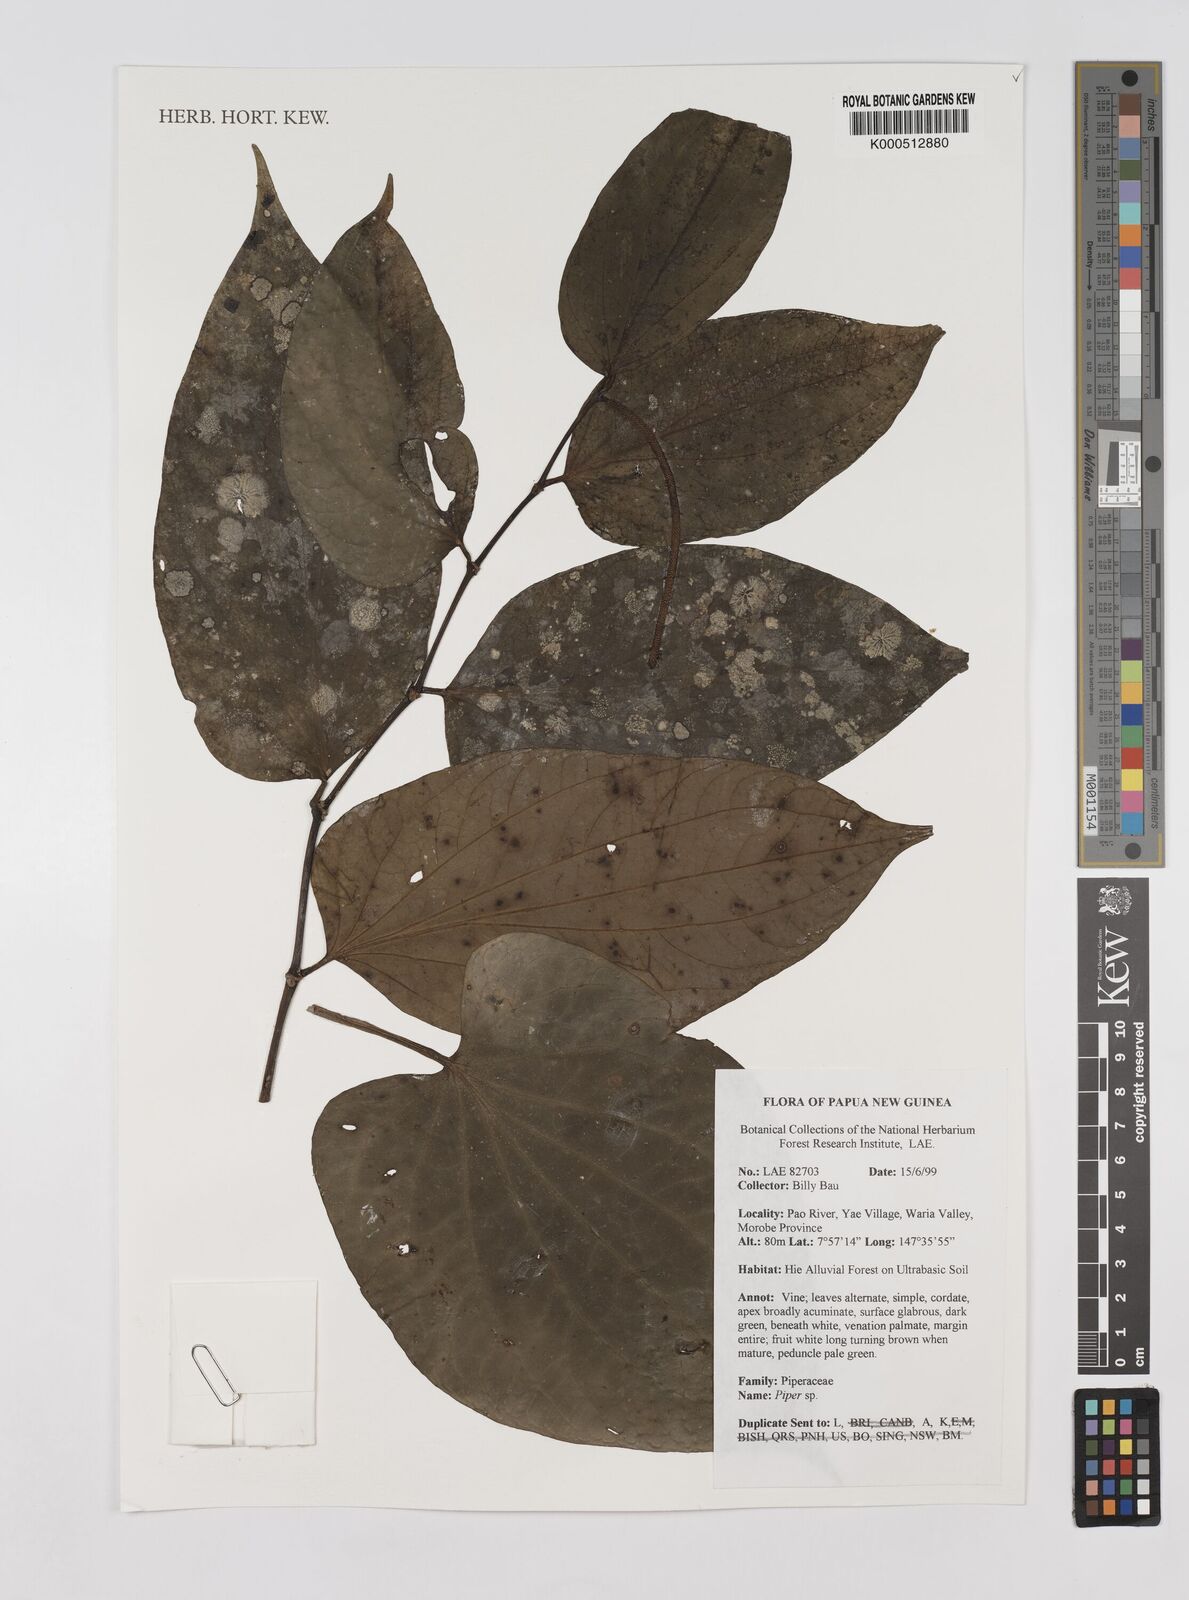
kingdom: Plantae
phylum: Tracheophyta
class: Magnoliopsida
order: Piperales
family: Piperaceae
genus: Piper
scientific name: Piper
